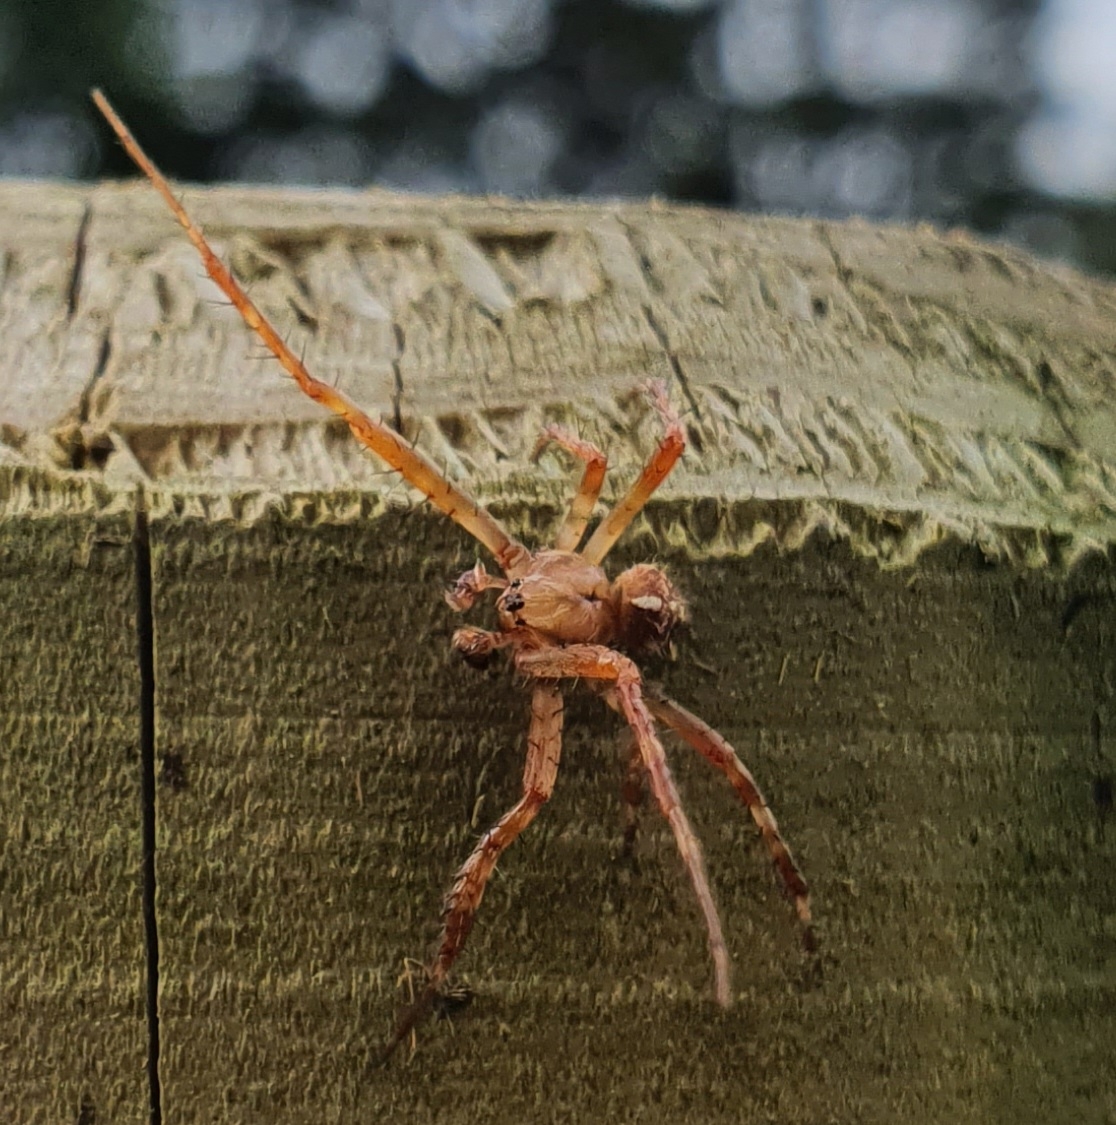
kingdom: Animalia
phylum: Arthropoda
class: Arachnida
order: Araneae
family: Araneidae
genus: Araneus
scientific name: Araneus diadematus
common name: Korsedderkop
